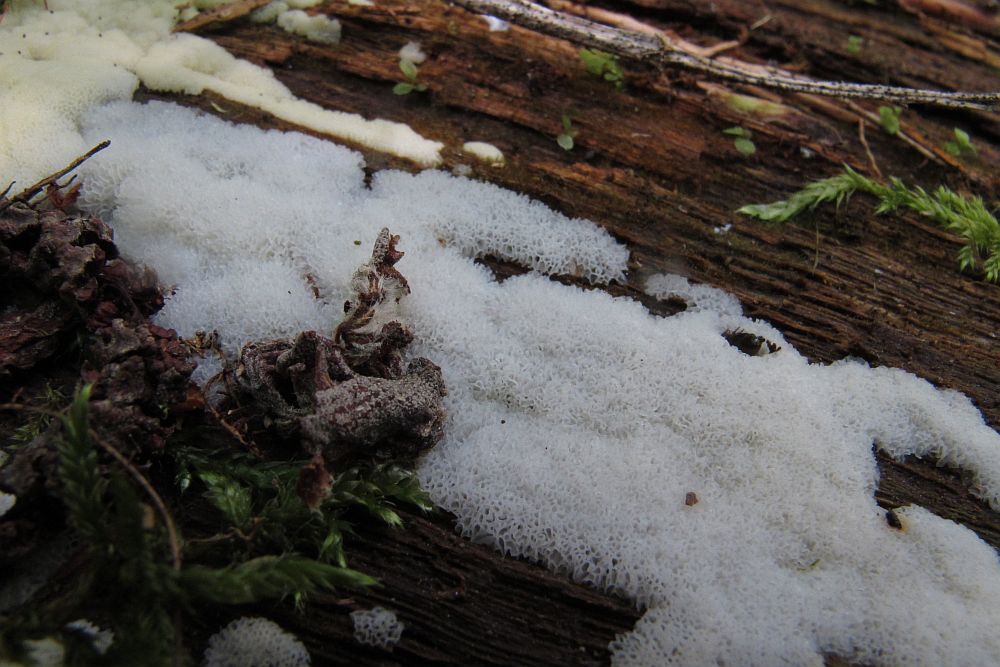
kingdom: Protozoa
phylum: Mycetozoa
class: Protosteliomycetes
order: Ceratiomyxales
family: Ceratiomyxaceae
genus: Ceratiomyxa
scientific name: Ceratiomyxa fruticulosa
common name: Honeycomb coral slime mold
